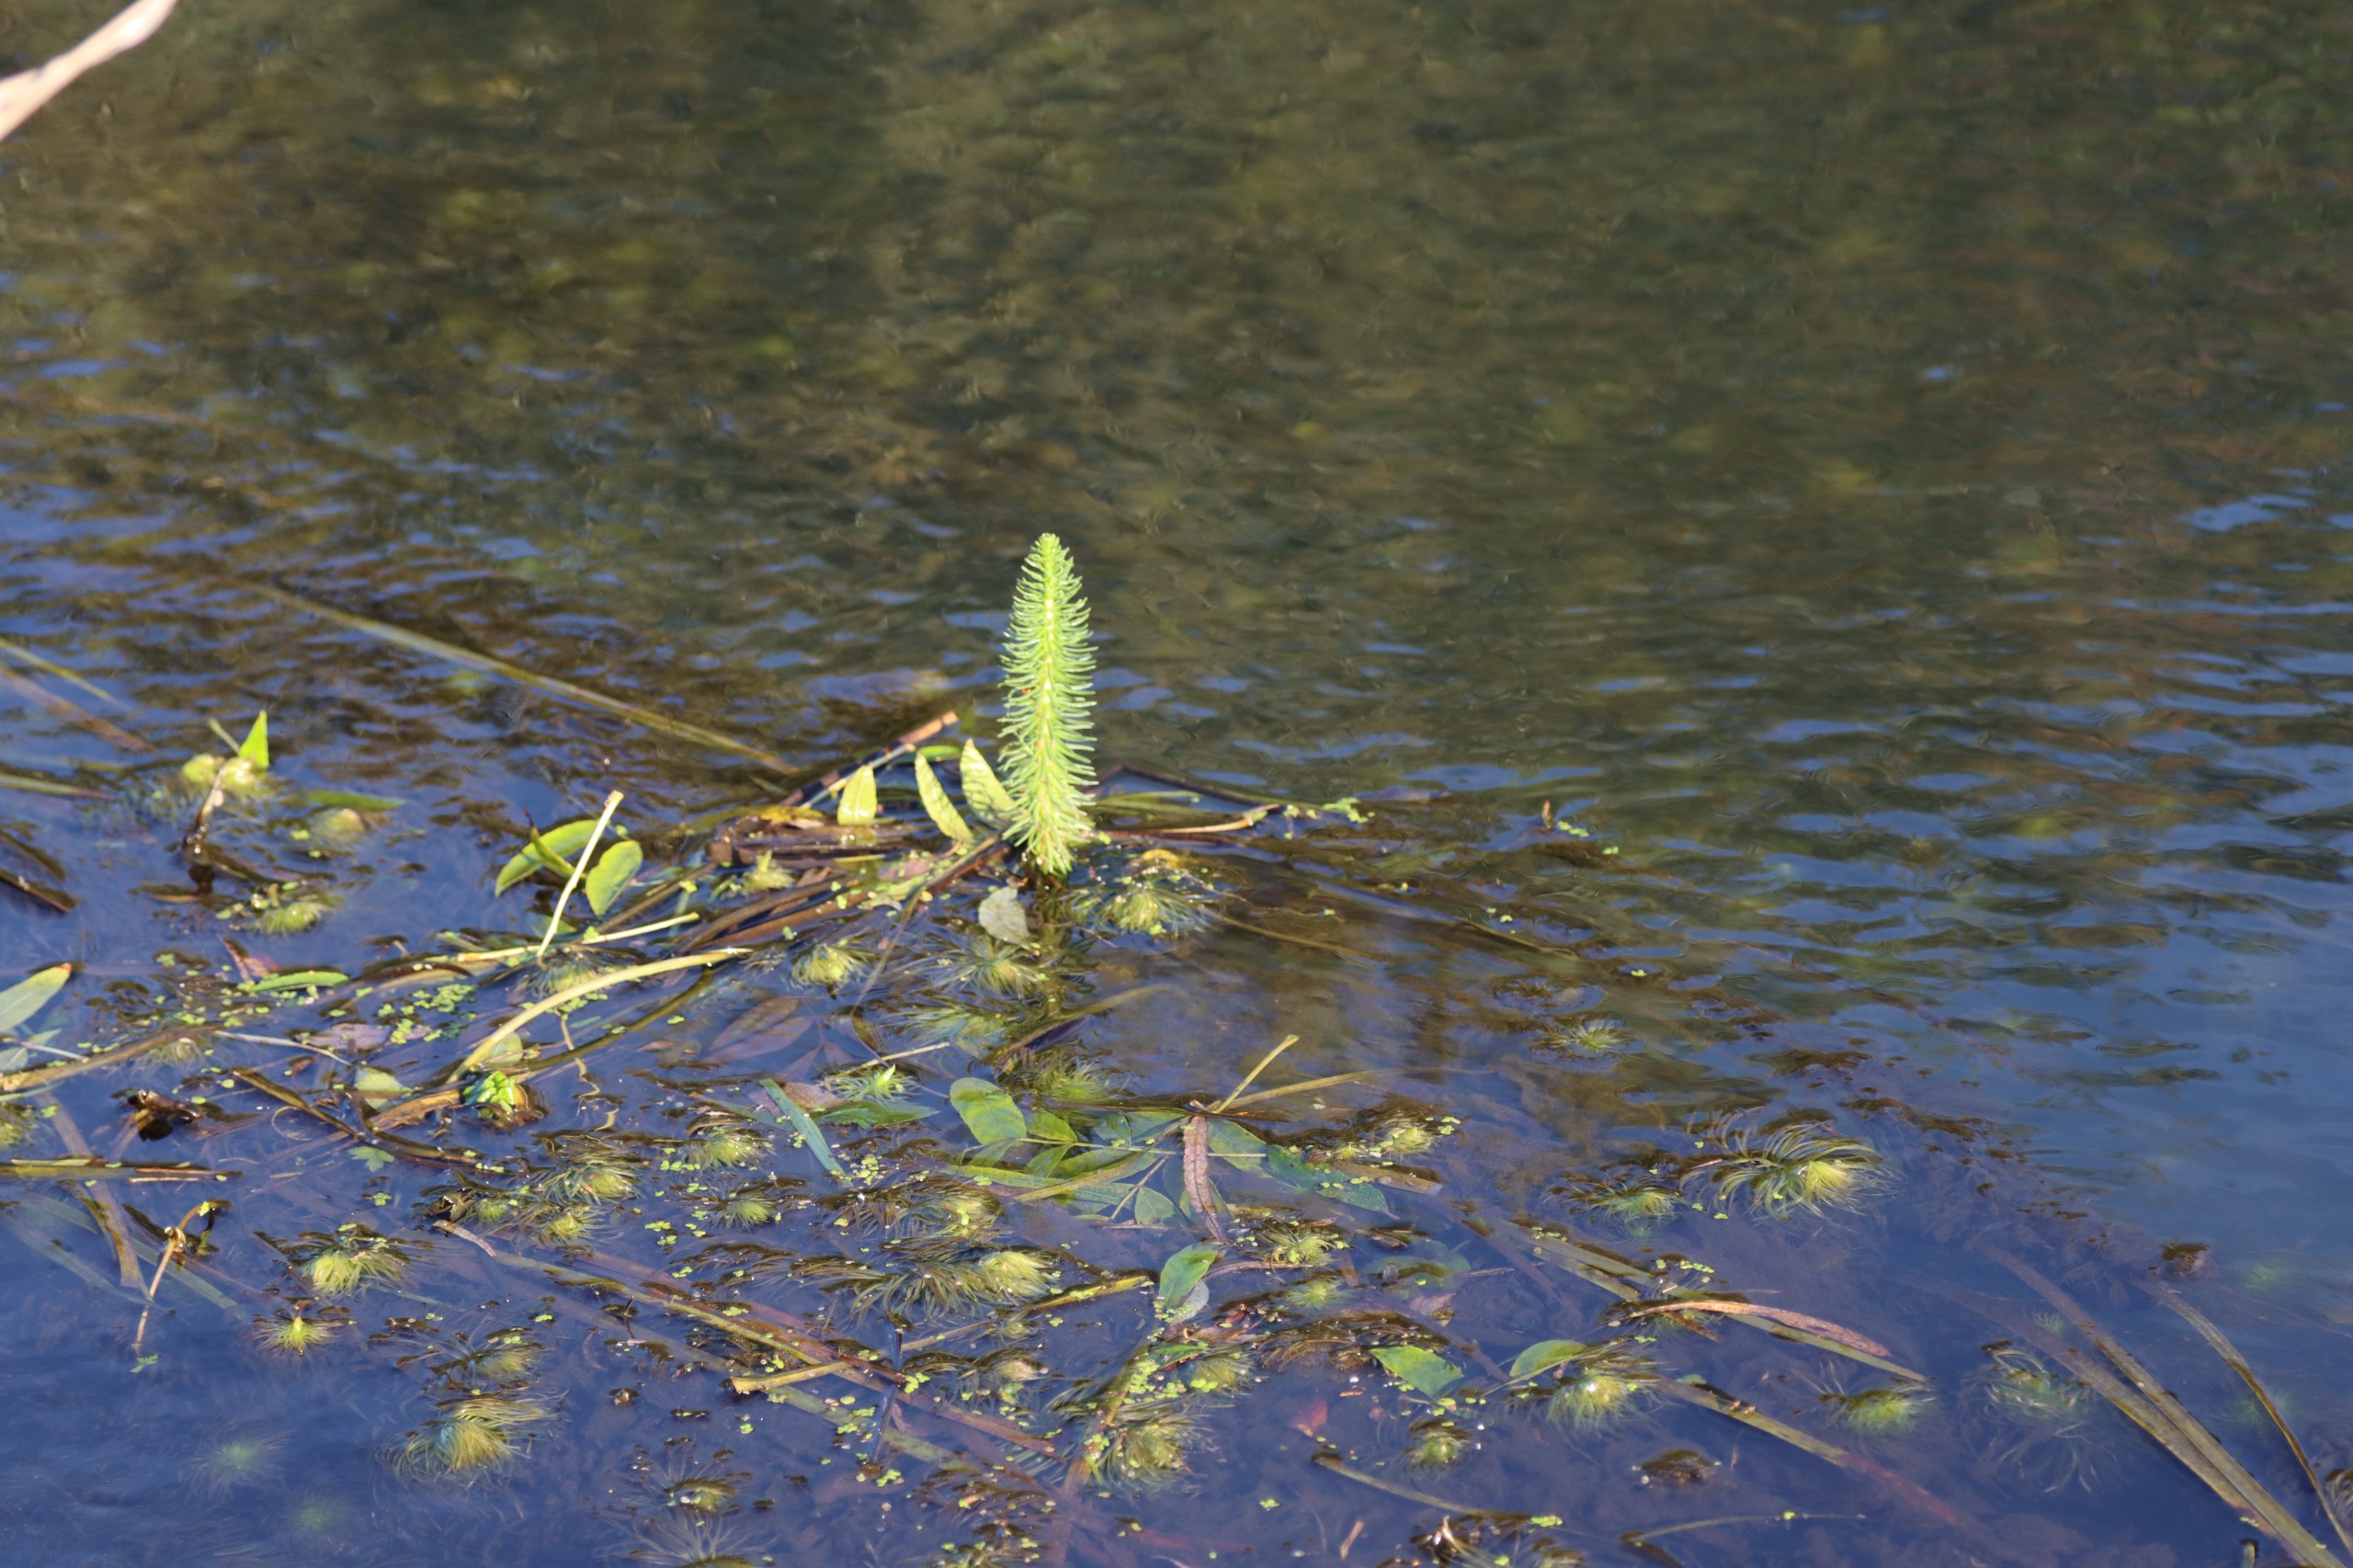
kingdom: Plantae
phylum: Tracheophyta
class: Magnoliopsida
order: Lamiales
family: Plantaginaceae
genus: Hippuris
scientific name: Hippuris vulgaris
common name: Vandspir
